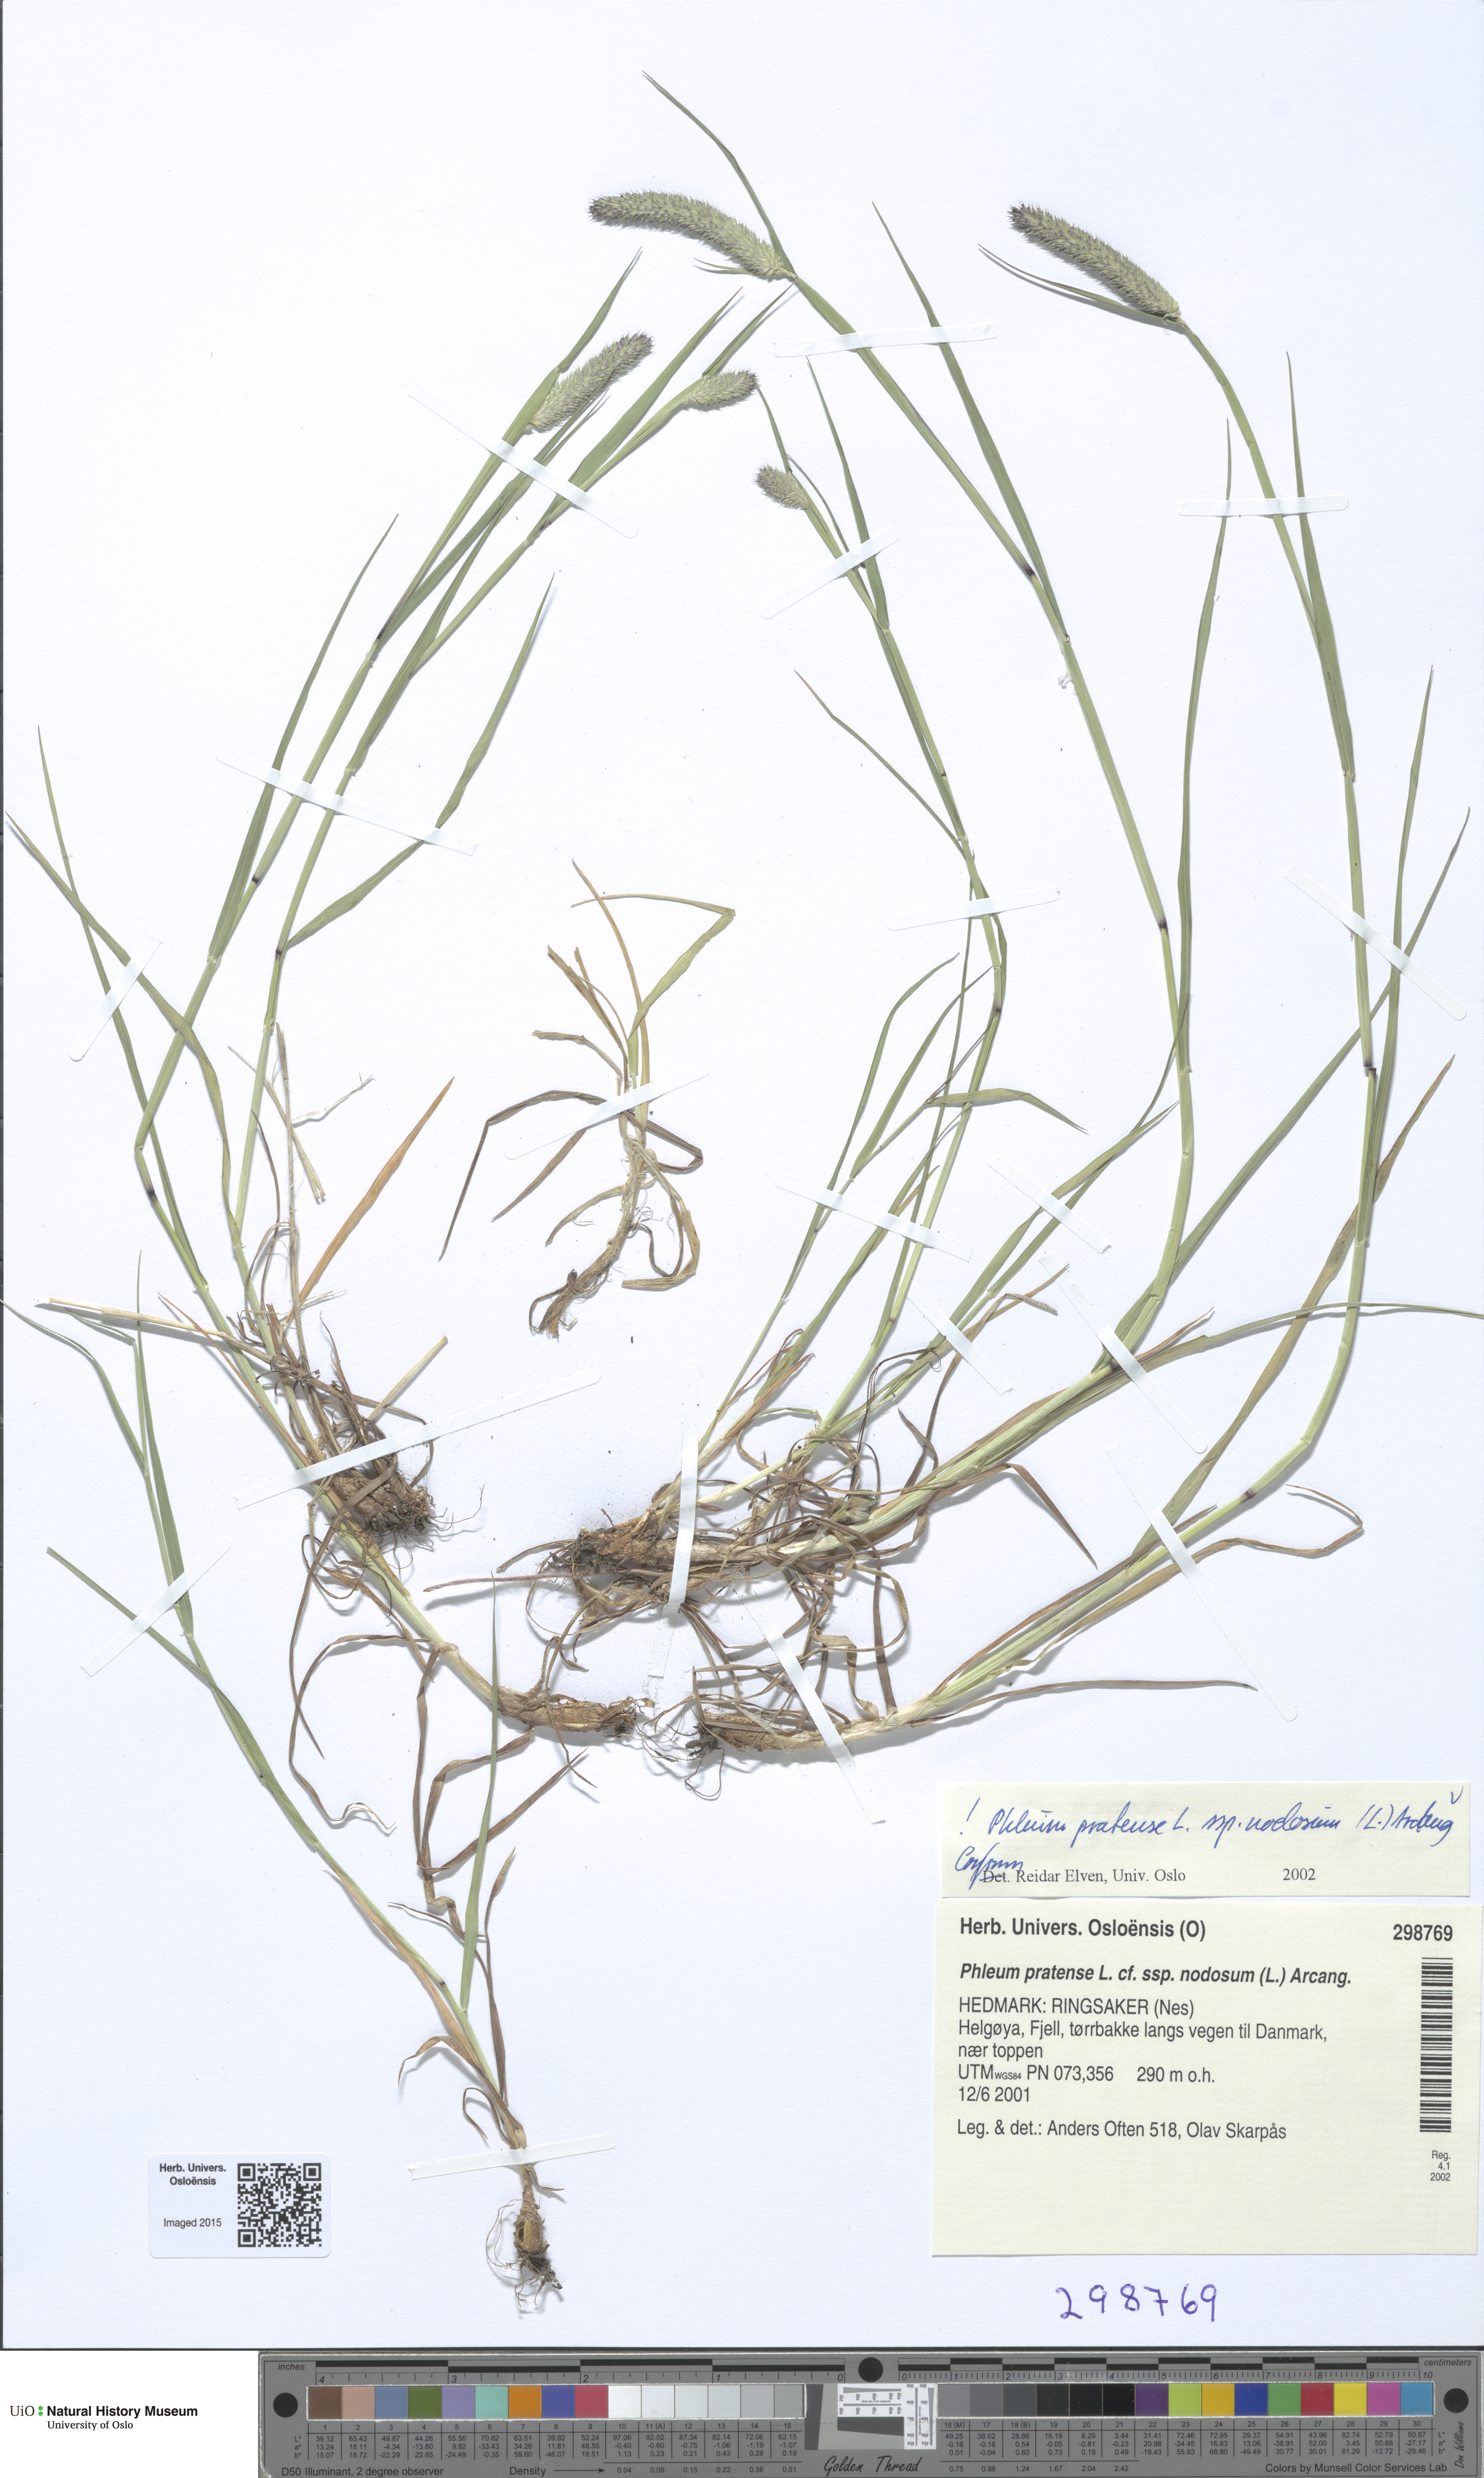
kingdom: Plantae
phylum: Tracheophyta
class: Liliopsida
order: Poales
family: Poaceae
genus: Phleum
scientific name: Phleum pratense
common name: Timothy grass
